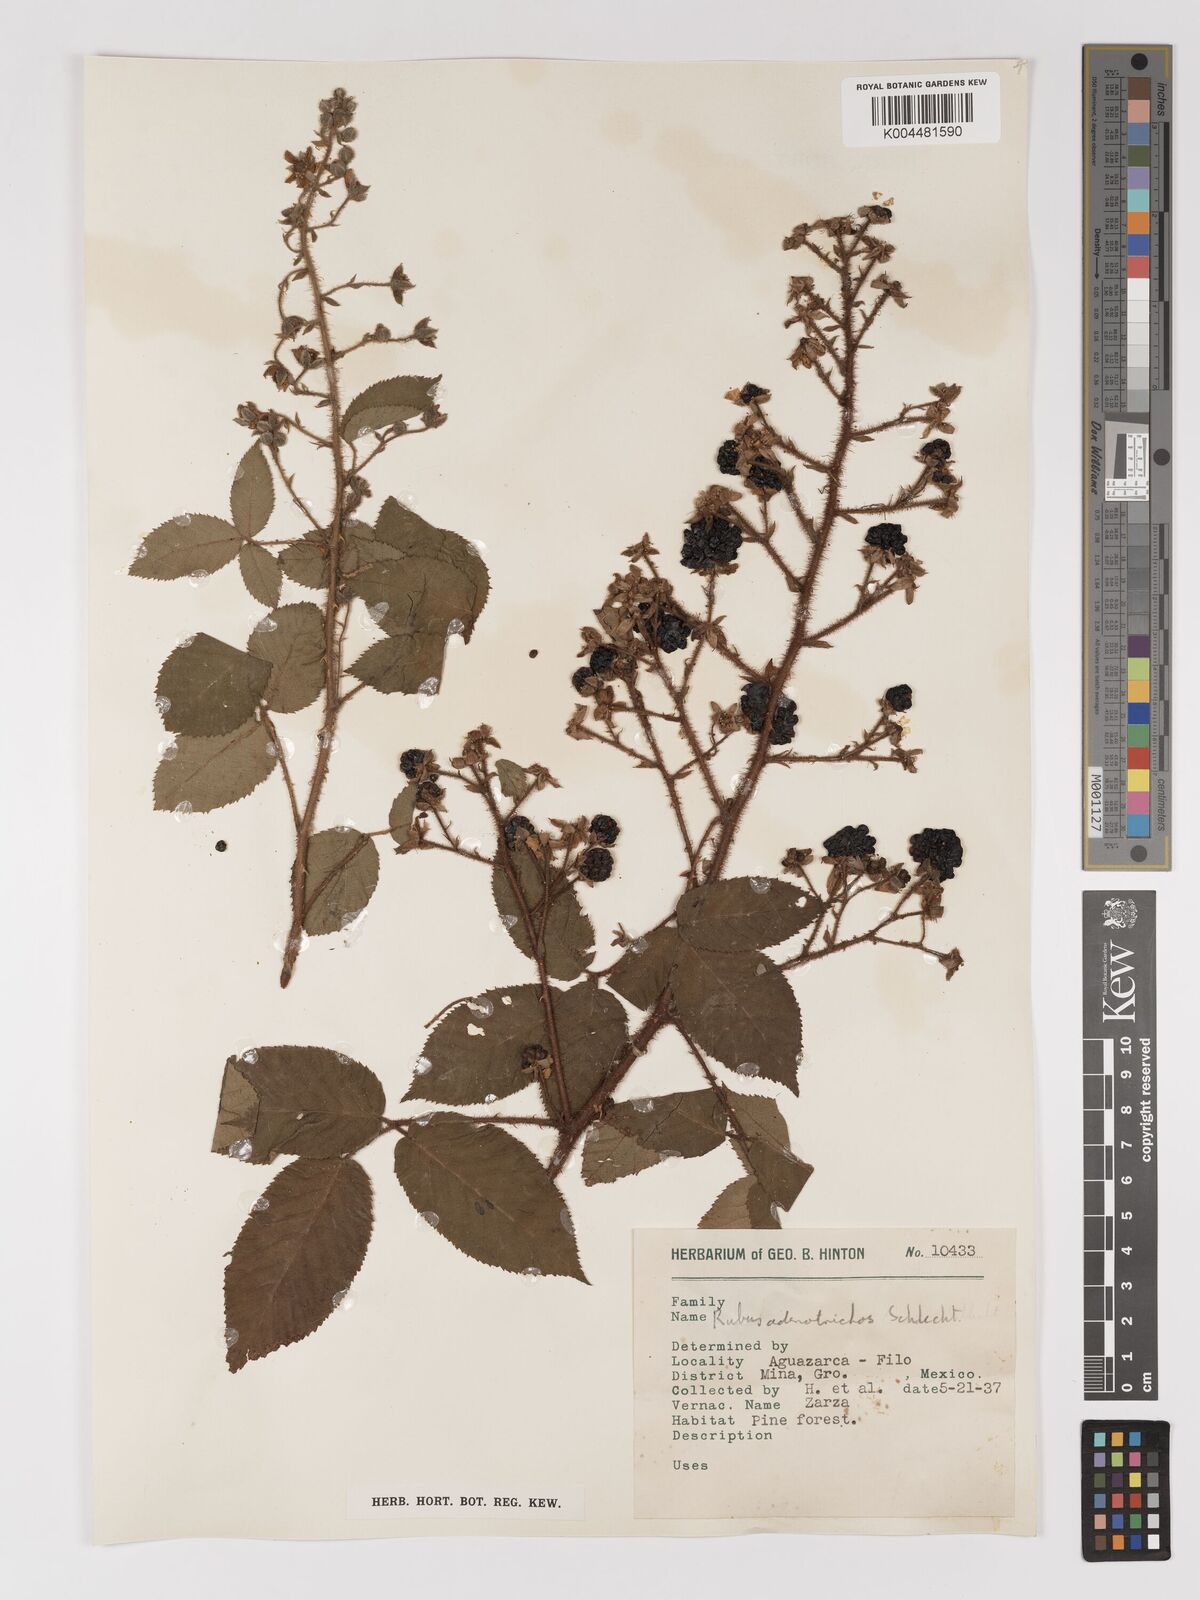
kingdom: Plantae
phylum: Tracheophyta
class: Magnoliopsida
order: Rosales
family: Rosaceae
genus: Rubus
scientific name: Rubus adenotrichos
